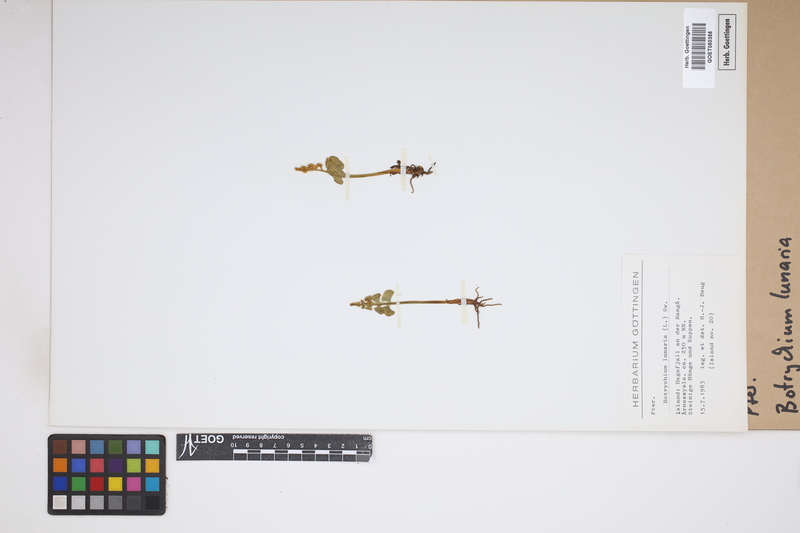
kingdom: Plantae
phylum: Tracheophyta
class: Polypodiopsida
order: Ophioglossales
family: Ophioglossaceae
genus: Botrychium
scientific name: Botrychium lunaria
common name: Moonwort
